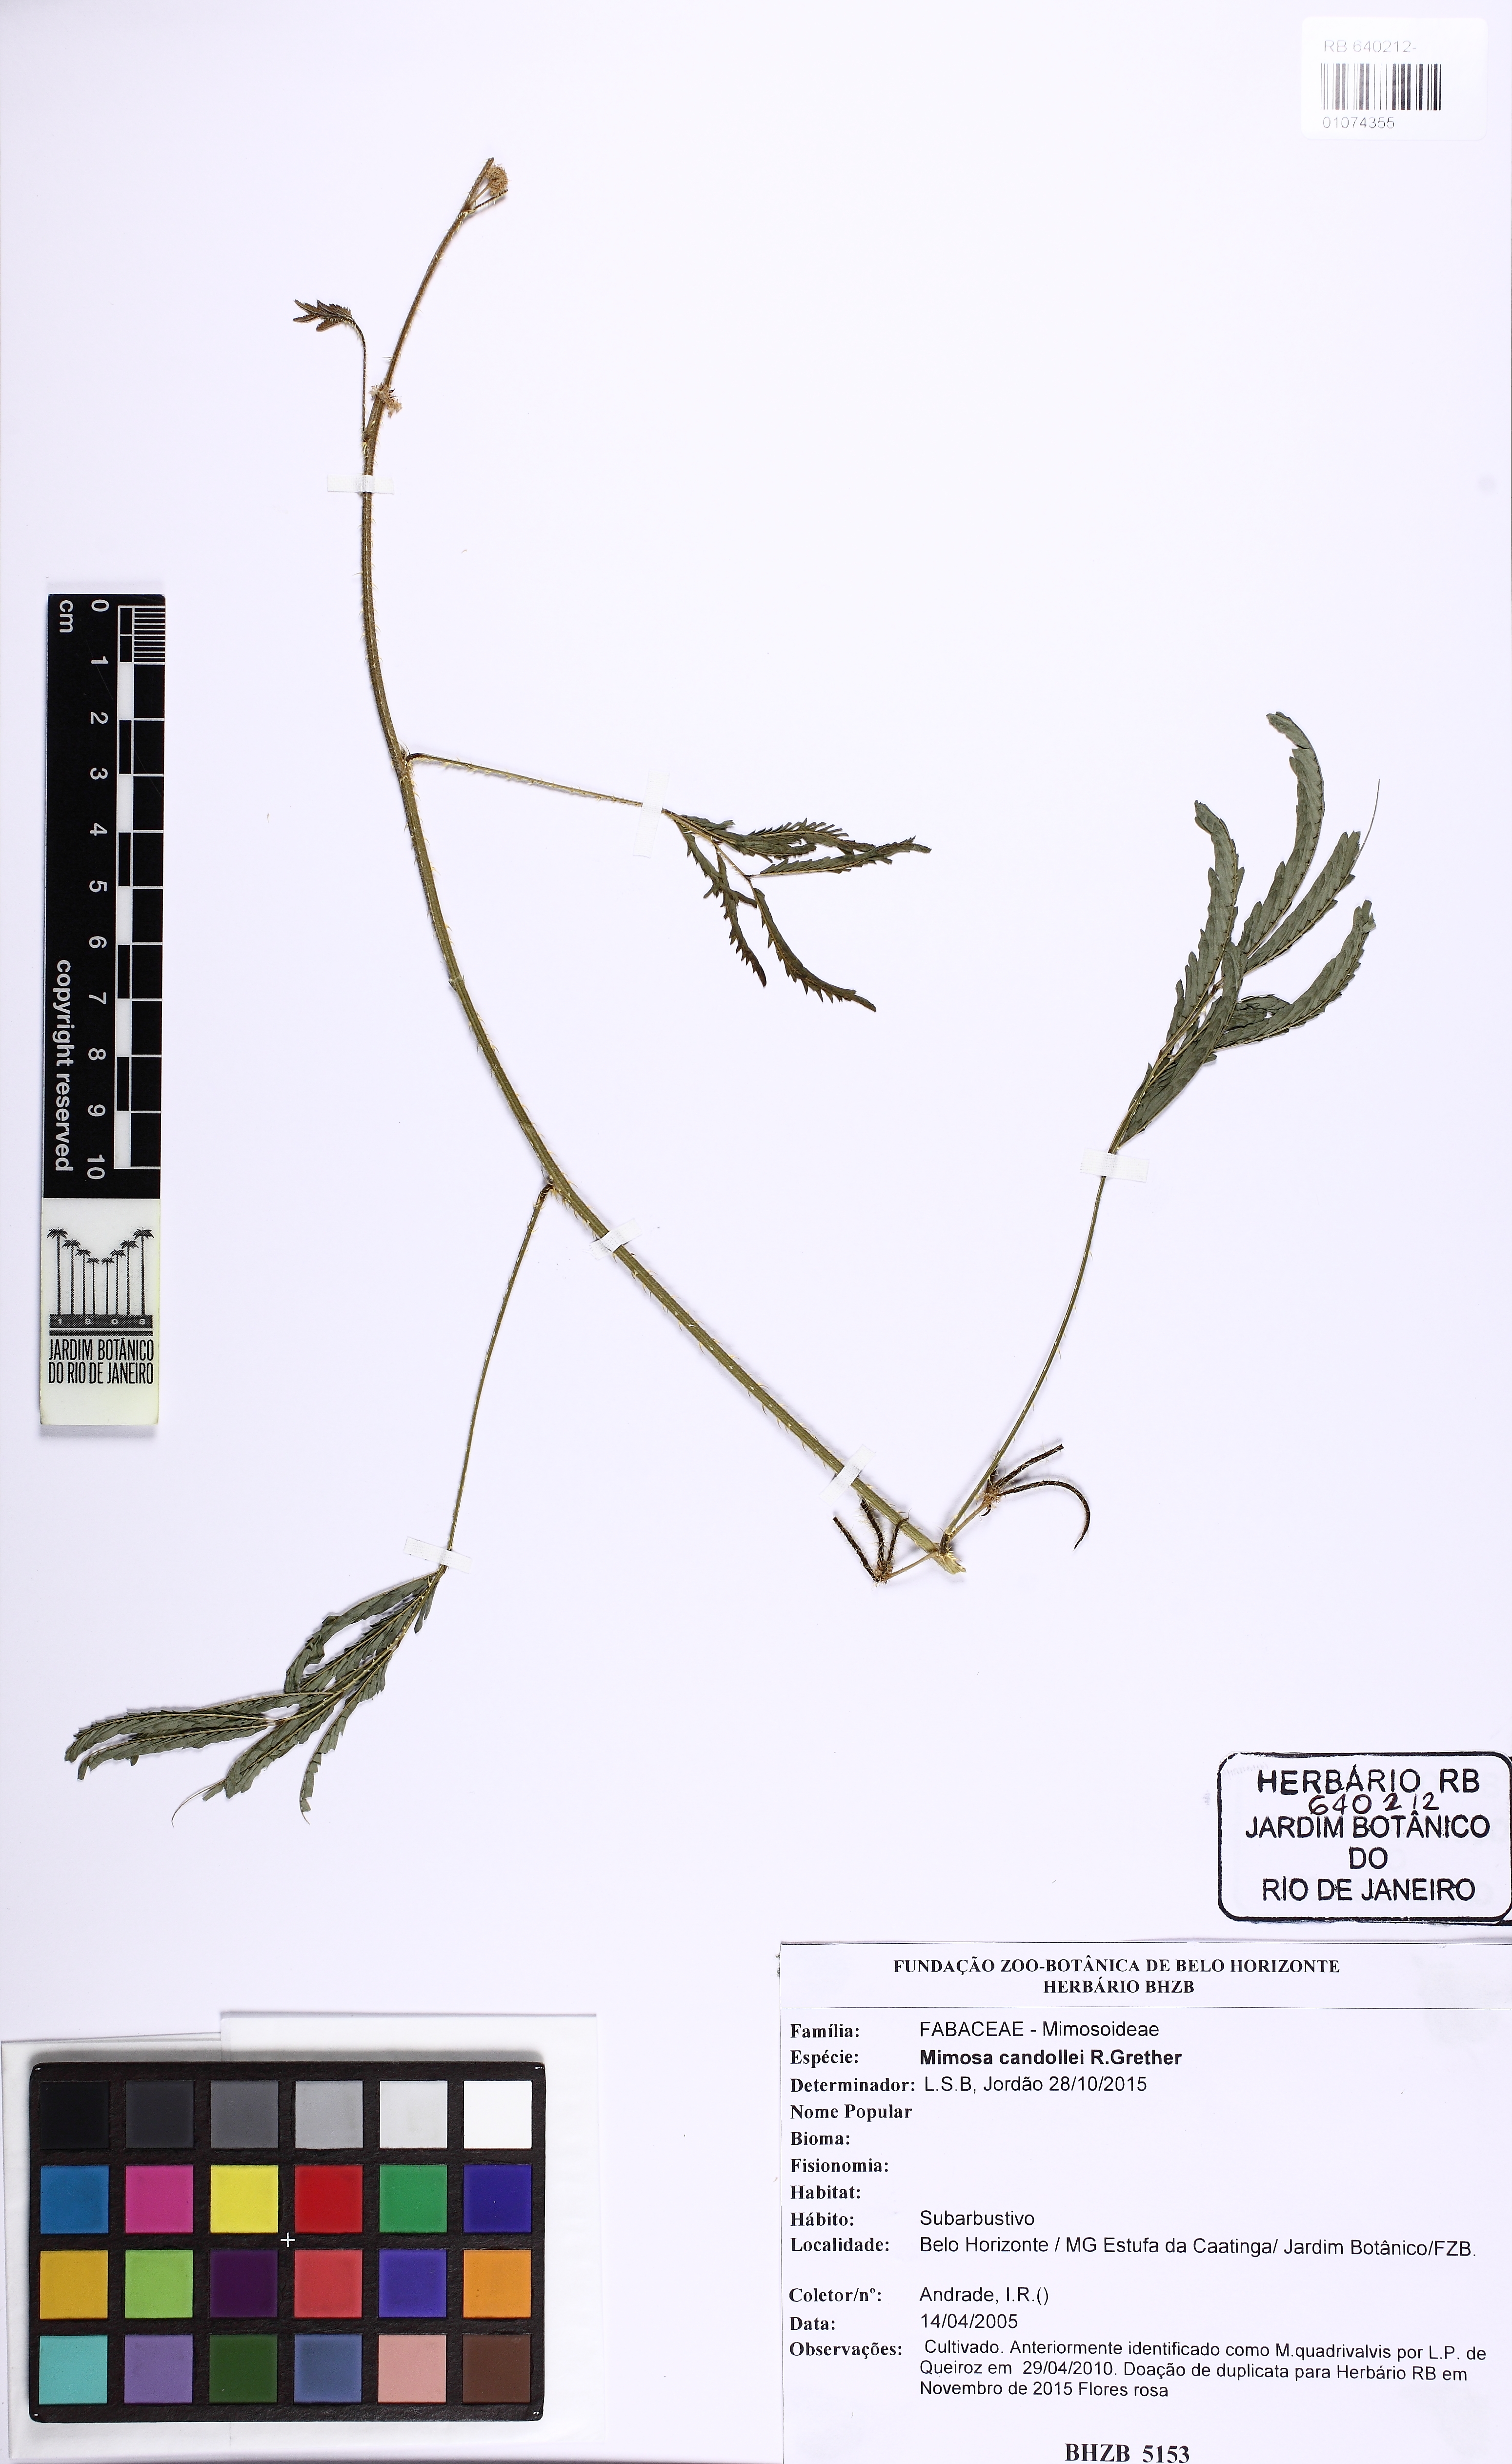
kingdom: Plantae
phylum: Tracheophyta
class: Magnoliopsida
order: Fabales
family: Fabaceae
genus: Mimosa
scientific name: Mimosa candollei
